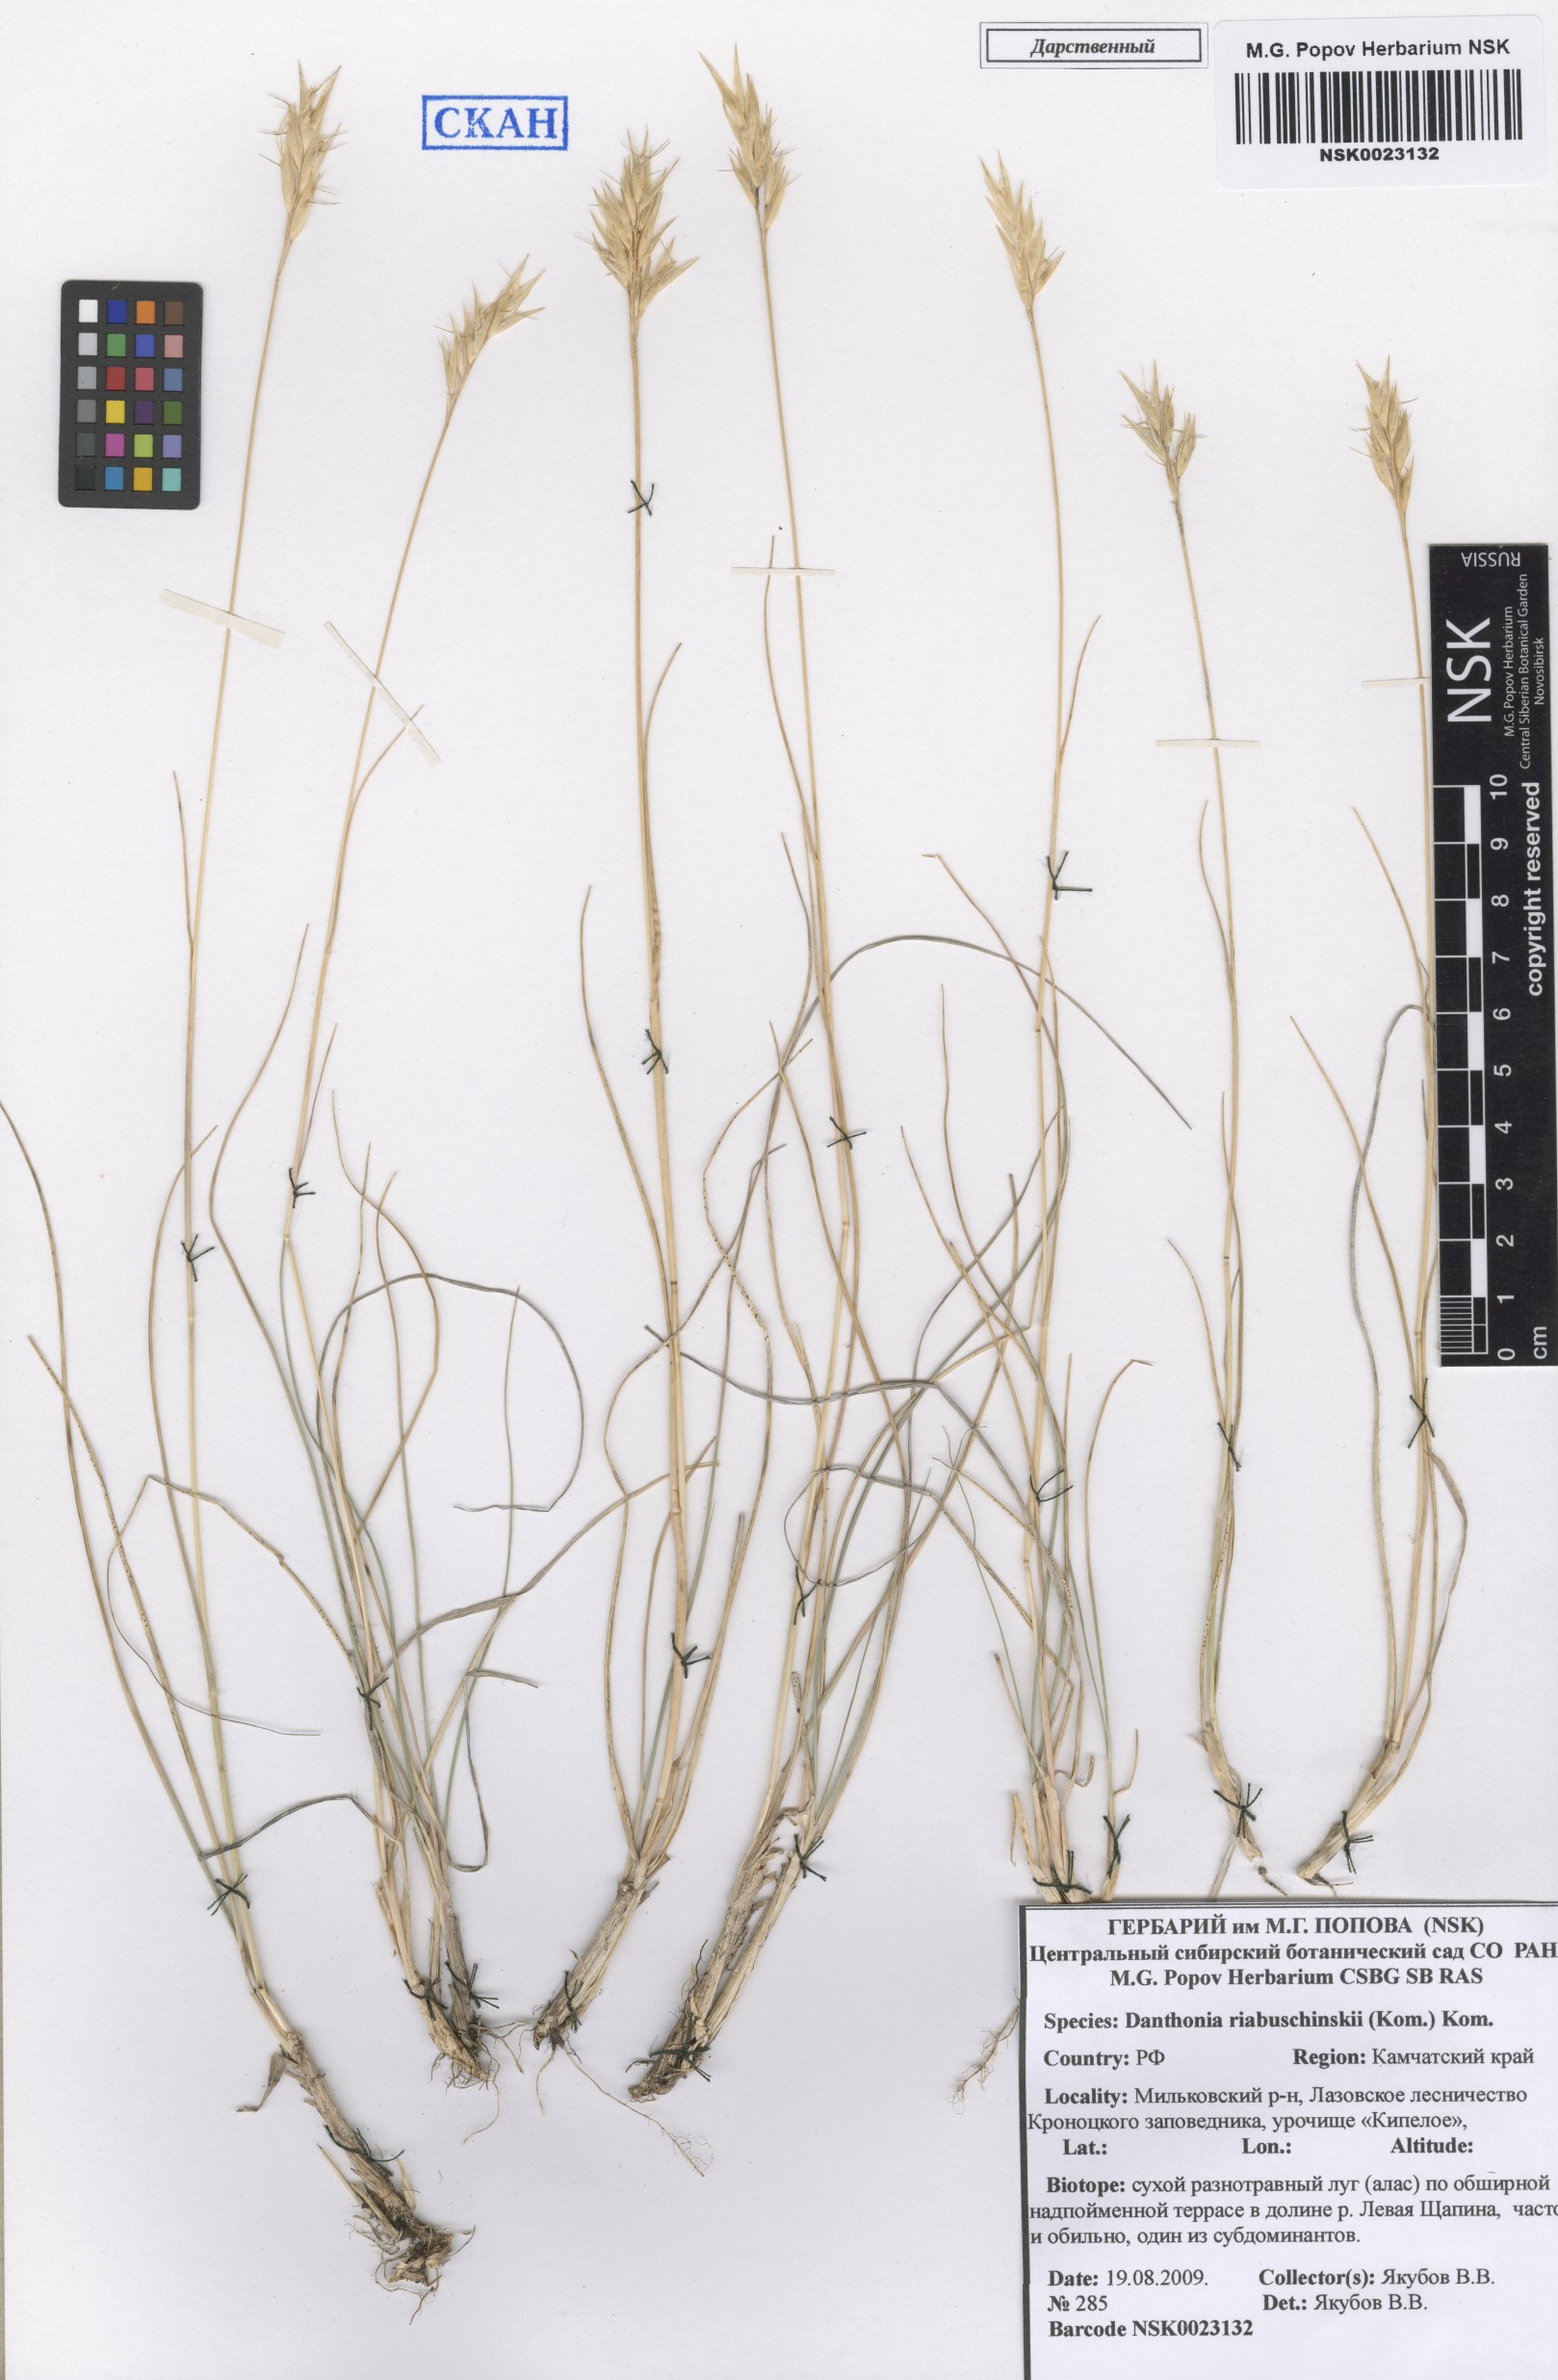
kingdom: Plantae
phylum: Tracheophyta
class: Liliopsida
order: Poales
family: Poaceae
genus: Danthonia
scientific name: Danthonia intermedia
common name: Intermediate oat grass
